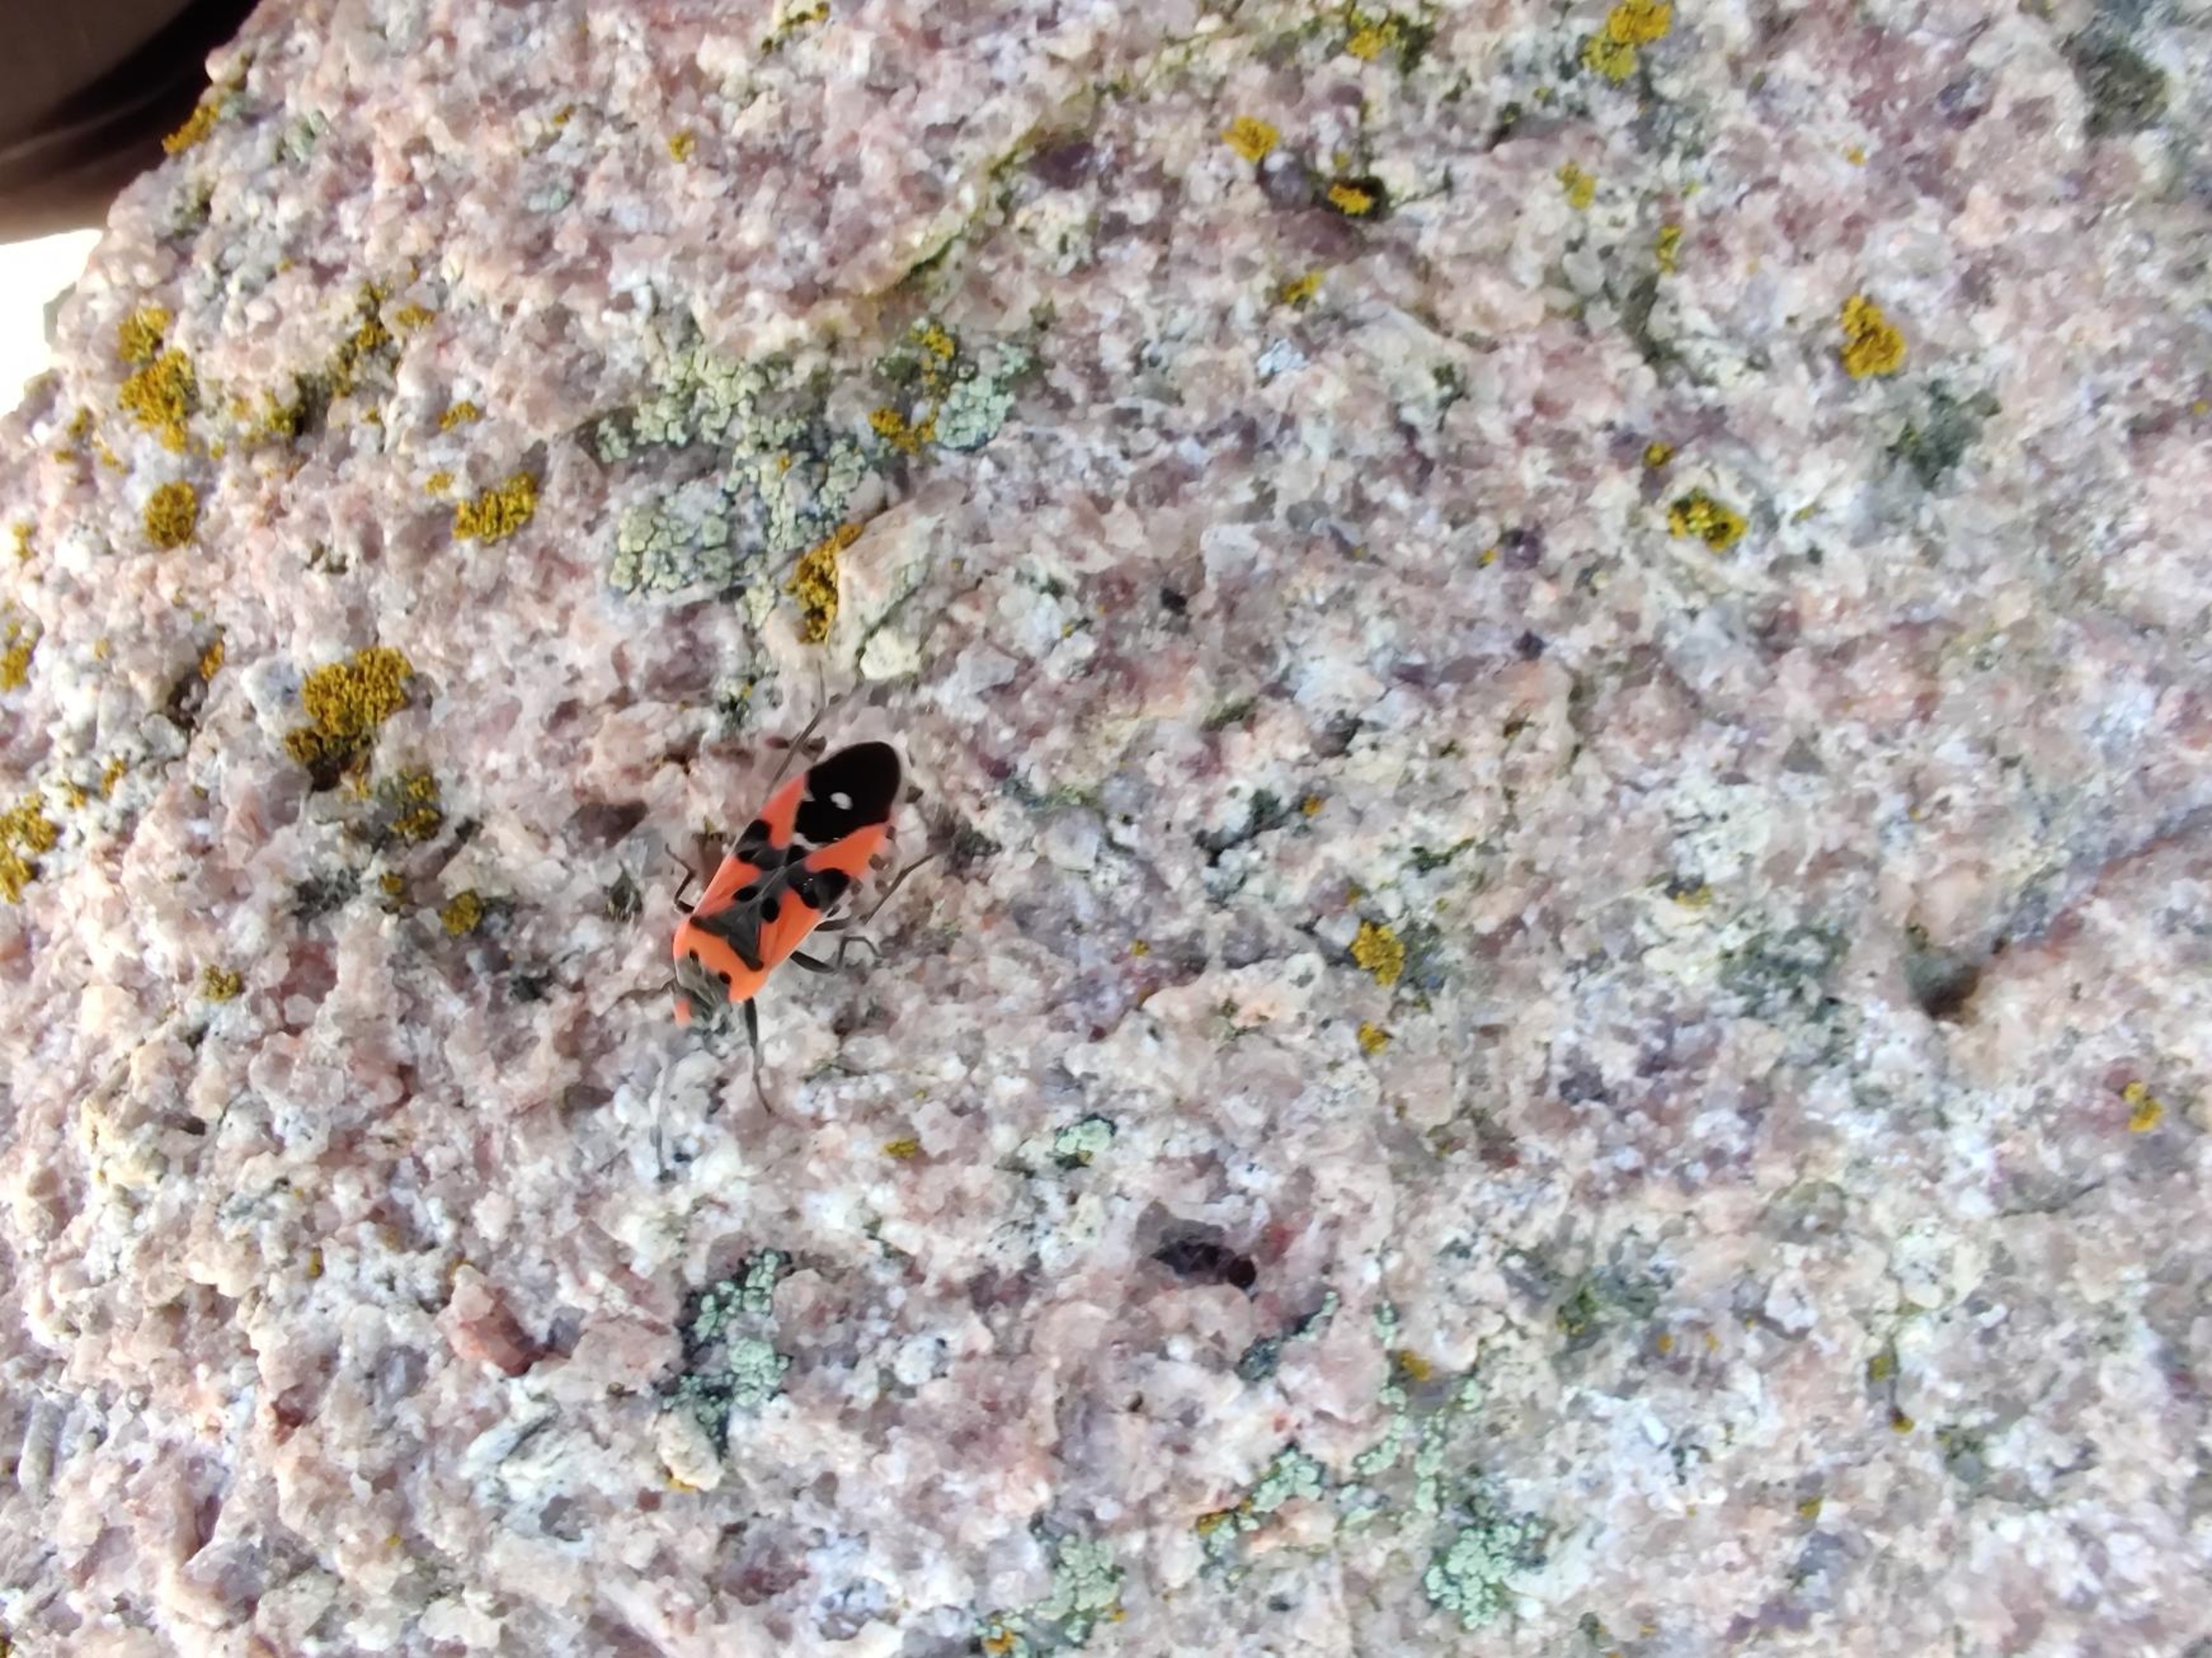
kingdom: Animalia
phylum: Arthropoda
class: Insecta
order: Hemiptera
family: Lygaeidae
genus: Lygaeus
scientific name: Lygaeus equestris
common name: Soldatertæge
